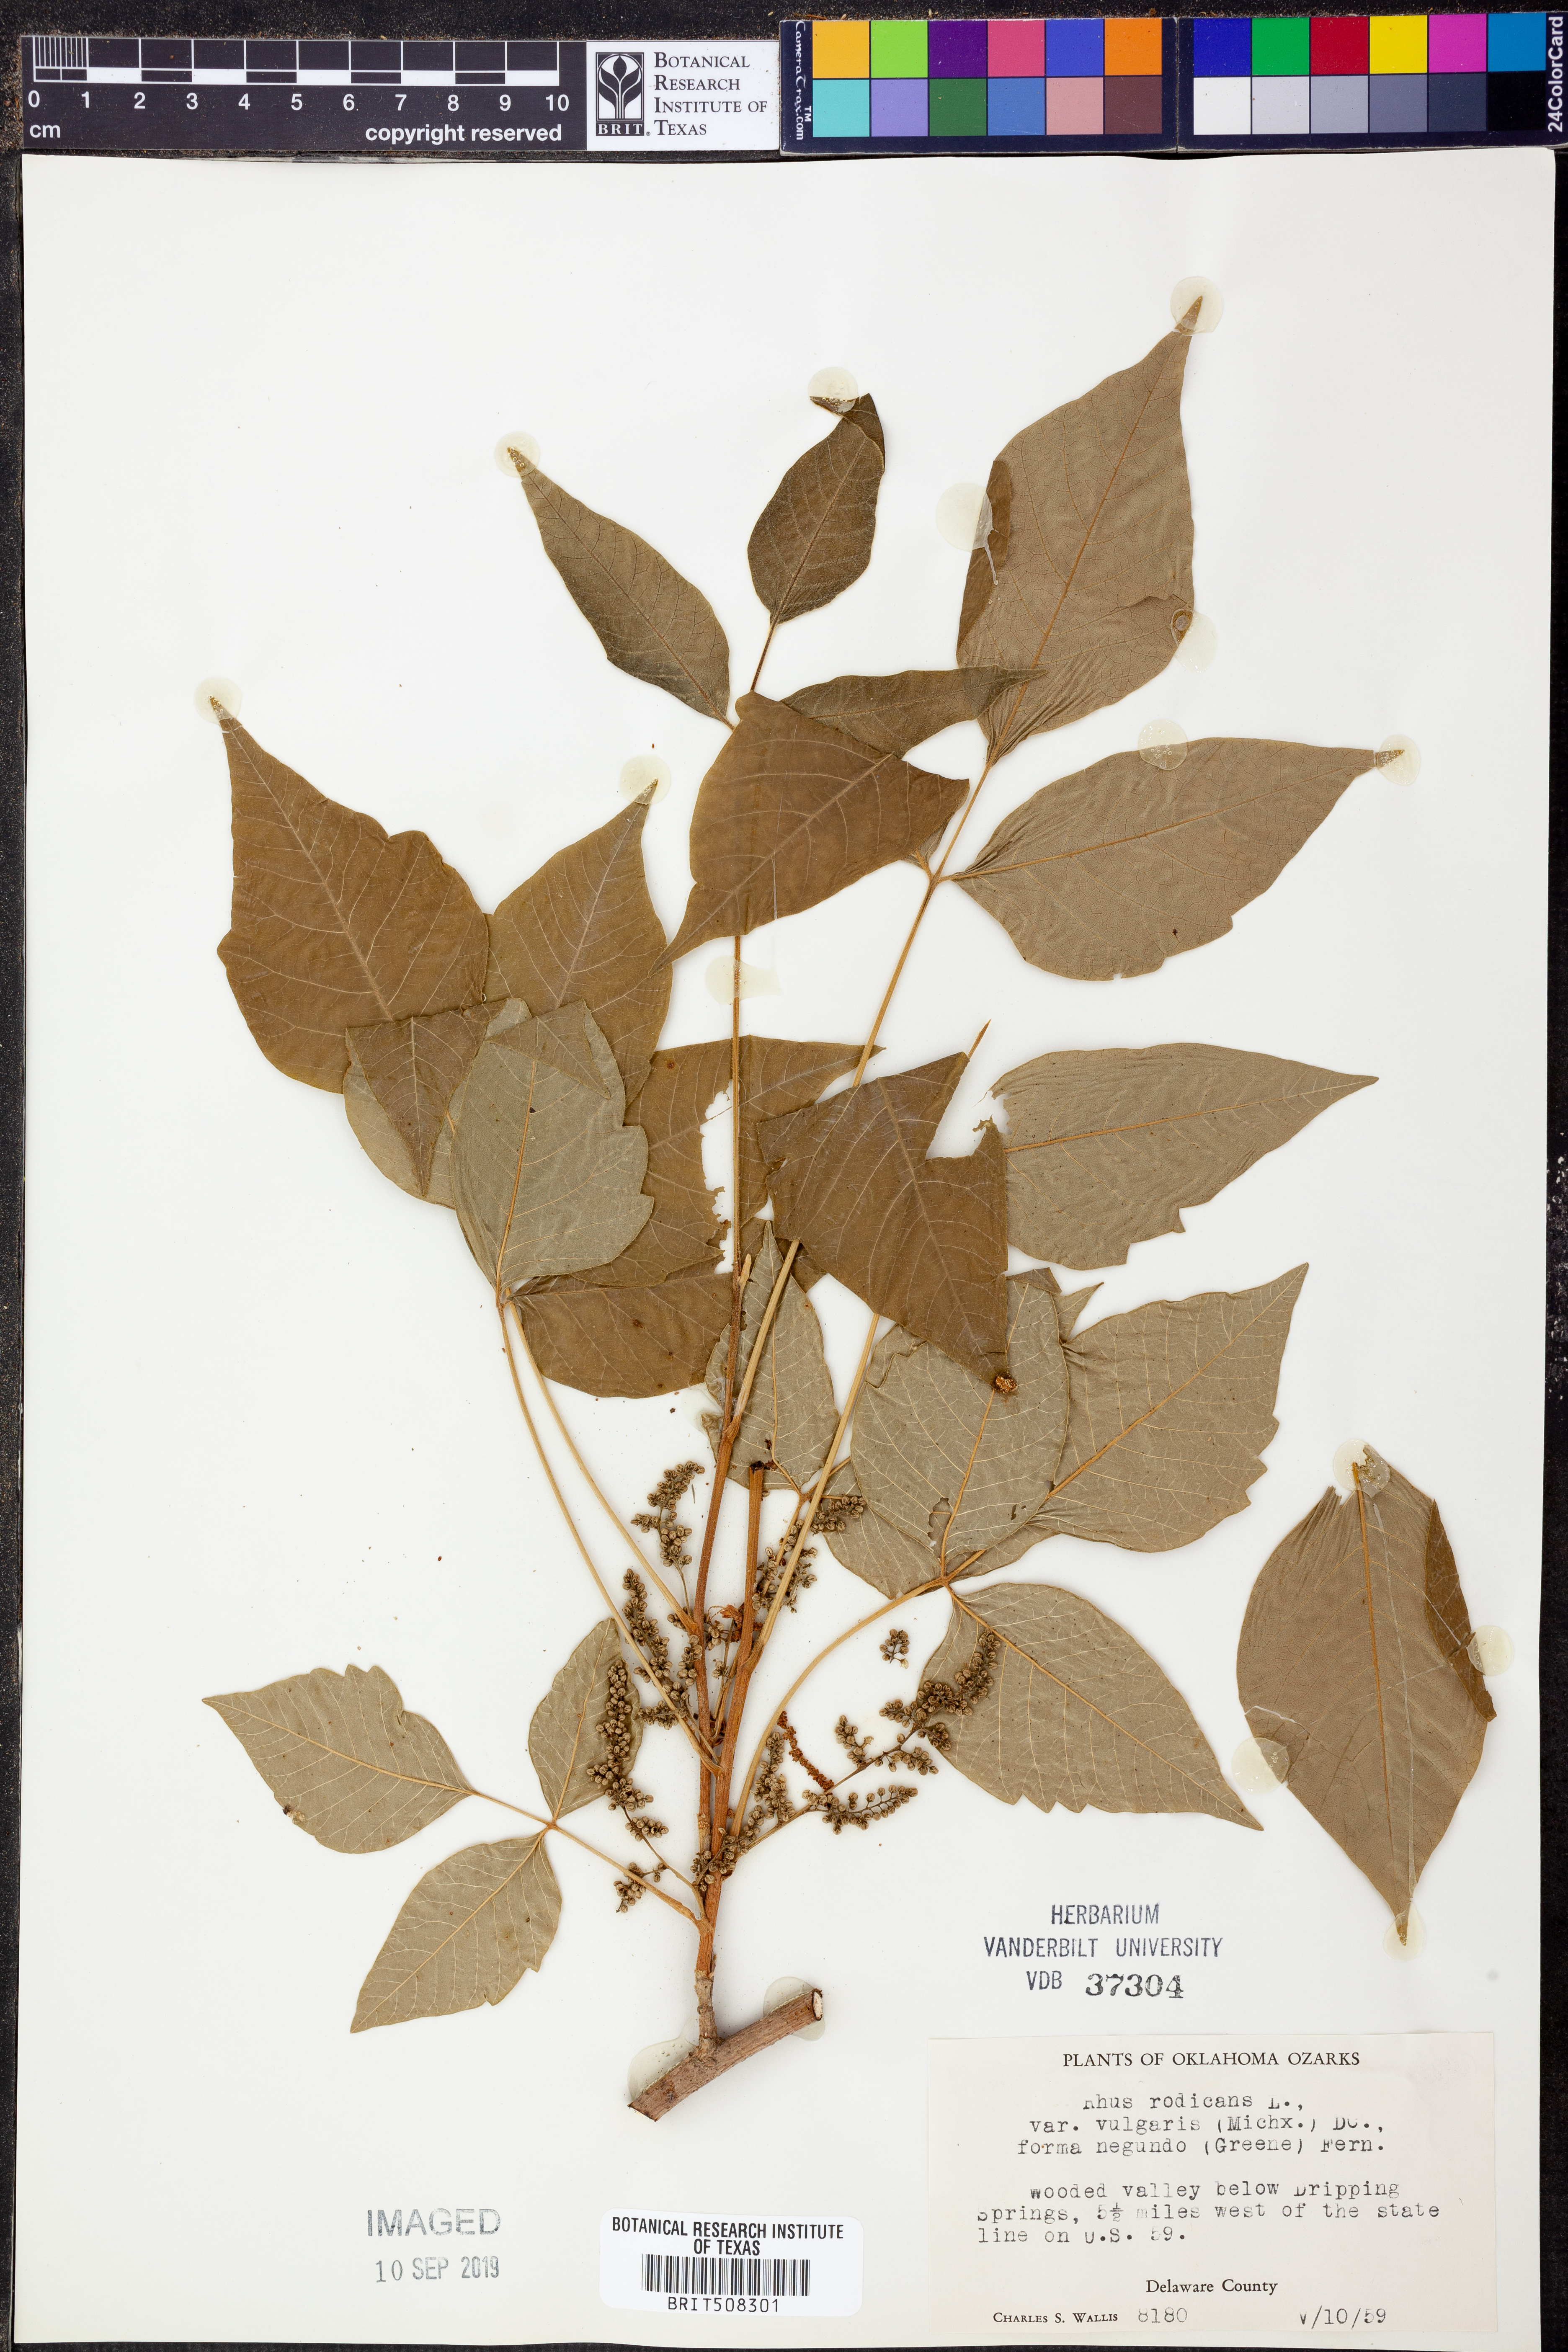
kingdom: Plantae
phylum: Tracheophyta
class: Magnoliopsida
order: Sapindales
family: Anacardiaceae
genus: Toxicodendron
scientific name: Toxicodendron rydbergii
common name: Rydberg's poison-ivy
